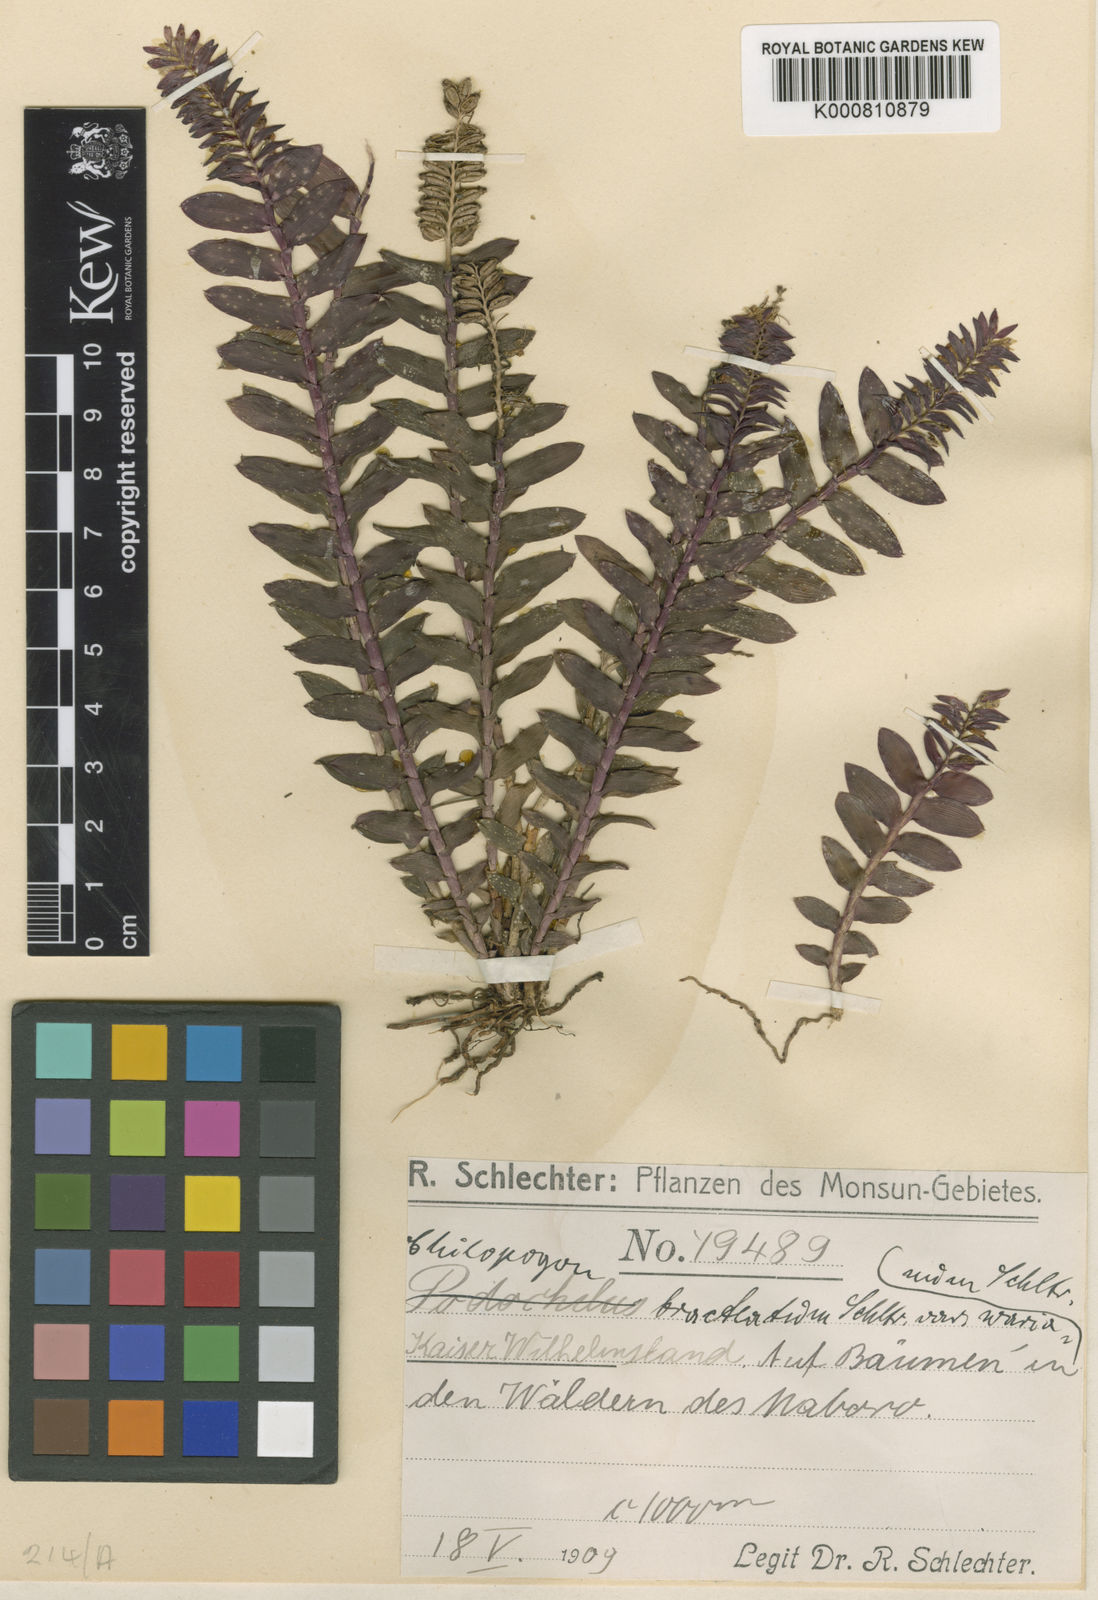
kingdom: Plantae
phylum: Tracheophyta
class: Liliopsida
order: Asparagales
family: Orchidaceae
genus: Appendicula
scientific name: Appendicula wariana
